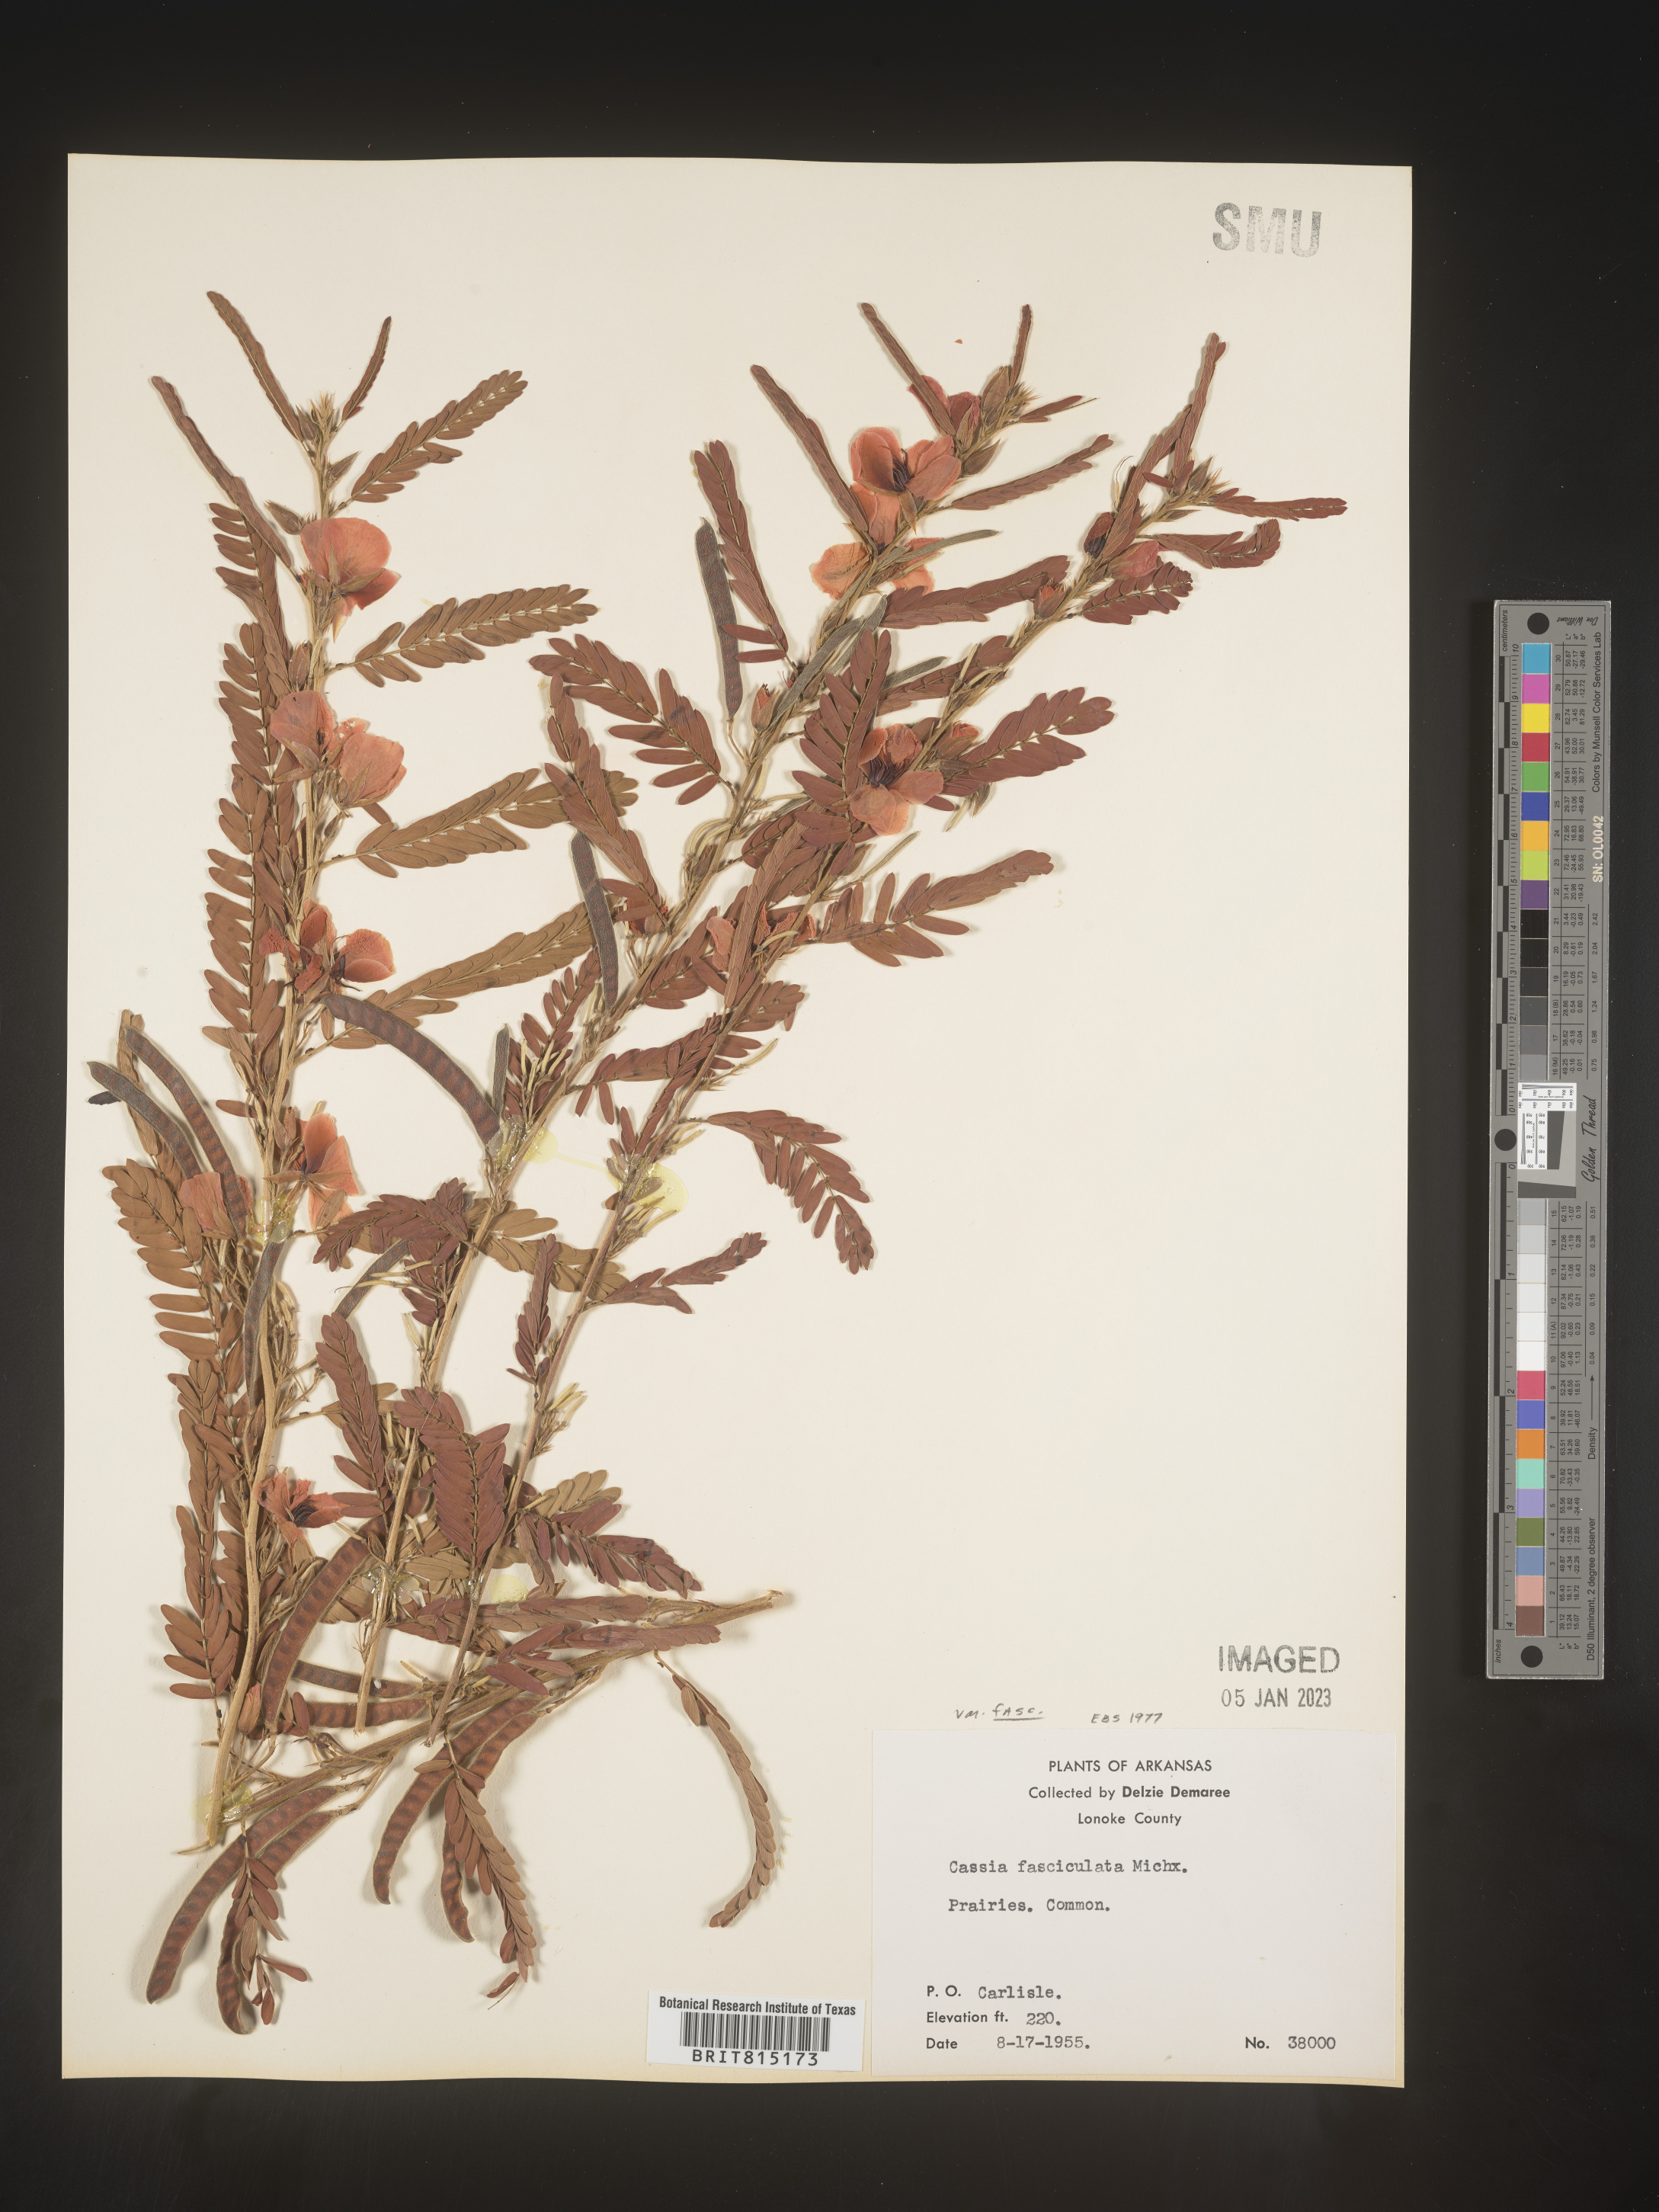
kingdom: Plantae
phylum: Tracheophyta
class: Magnoliopsida
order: Fabales
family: Fabaceae
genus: Chamaecrista
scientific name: Chamaecrista fasciculata
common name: Golden cassia
